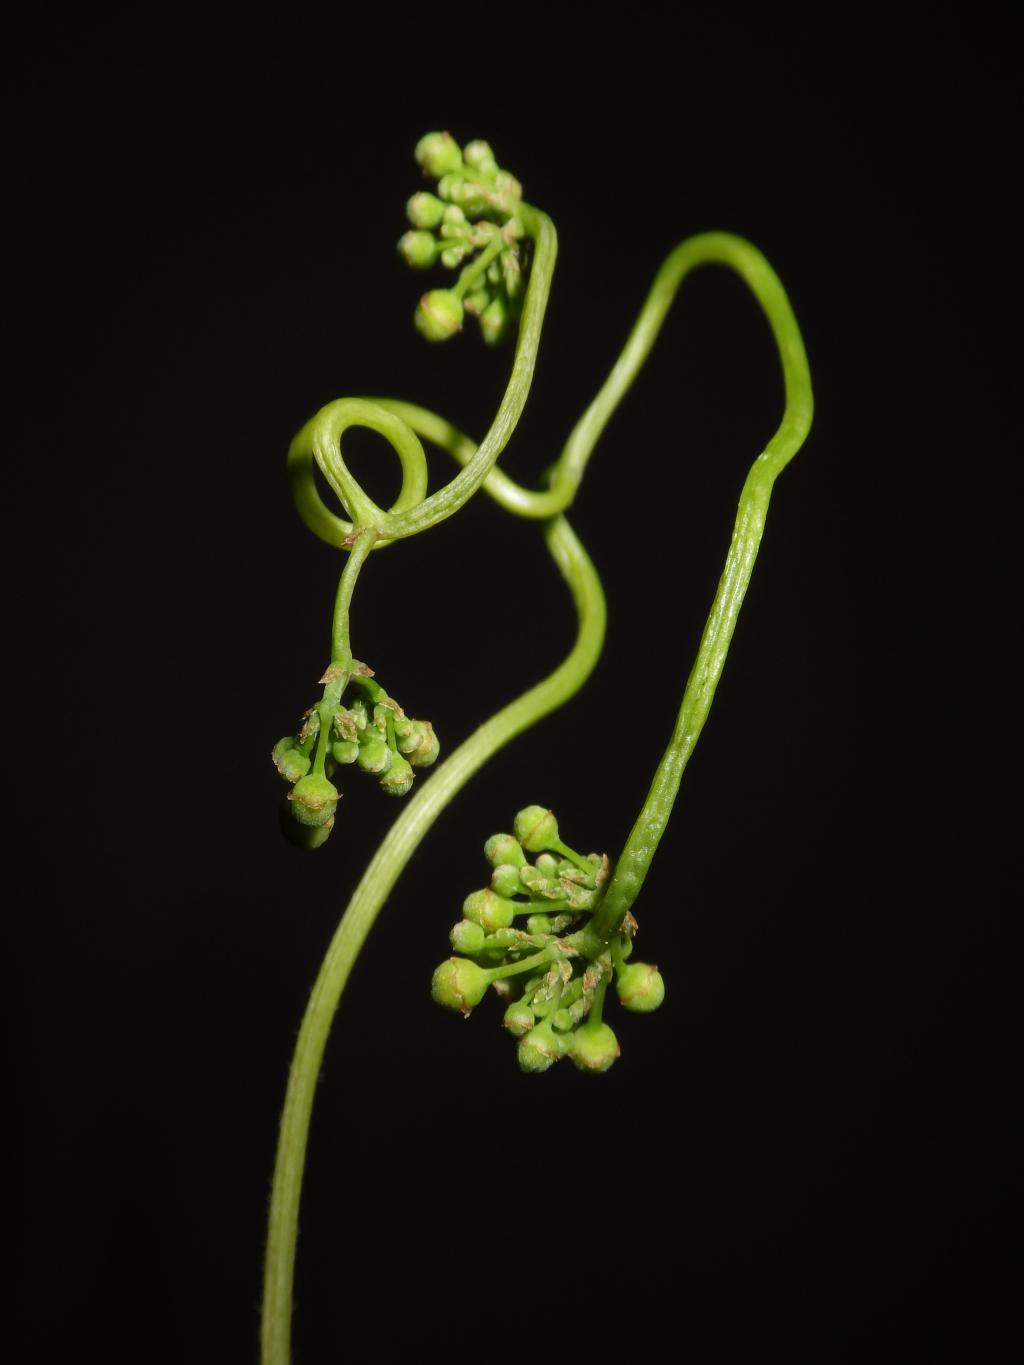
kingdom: Plantae
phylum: Tracheophyta
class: Magnoliopsida
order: Vitales
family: Vitaceae
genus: Ampelopsis
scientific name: Ampelopsis
